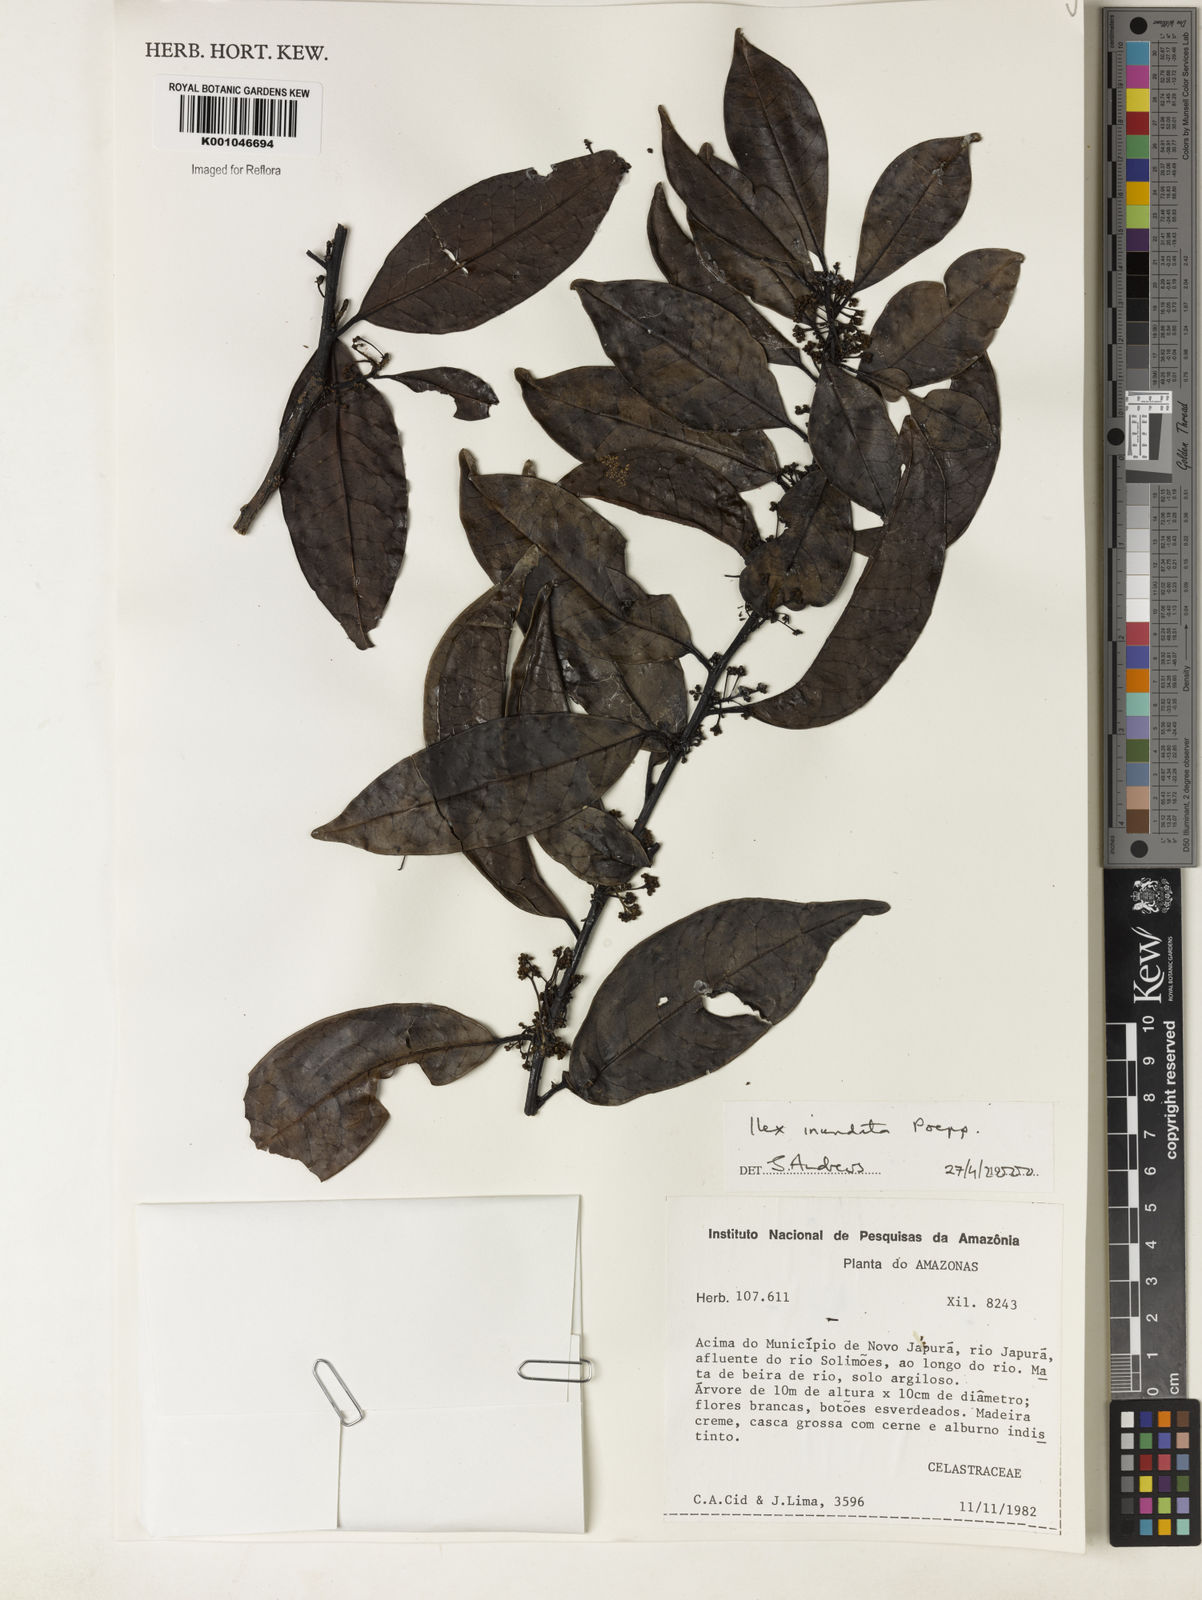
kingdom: Plantae
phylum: Tracheophyta
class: Magnoliopsida
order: Aquifoliales
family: Aquifoliaceae
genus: Ilex
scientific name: Ilex inundata
